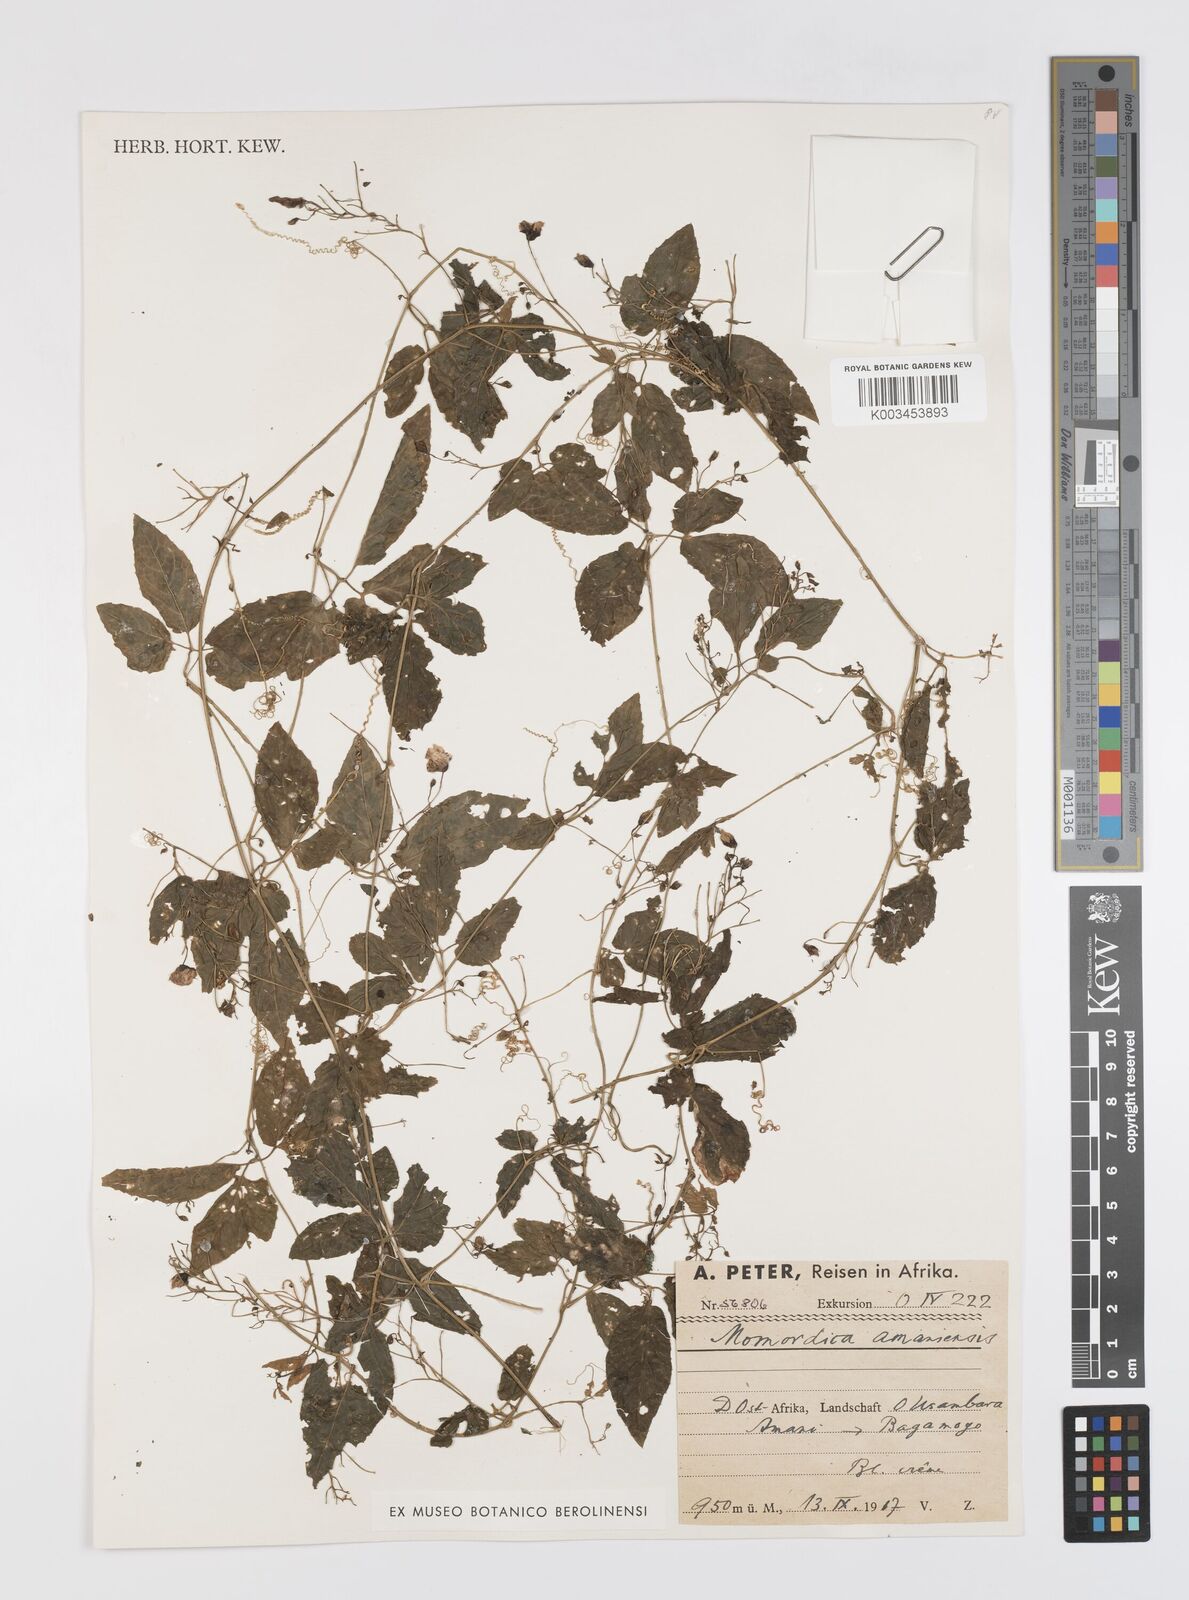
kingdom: Plantae
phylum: Tracheophyta
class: Magnoliopsida
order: Cucurbitales
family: Cucurbitaceae
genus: Momordica
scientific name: Momordica anigosantha
